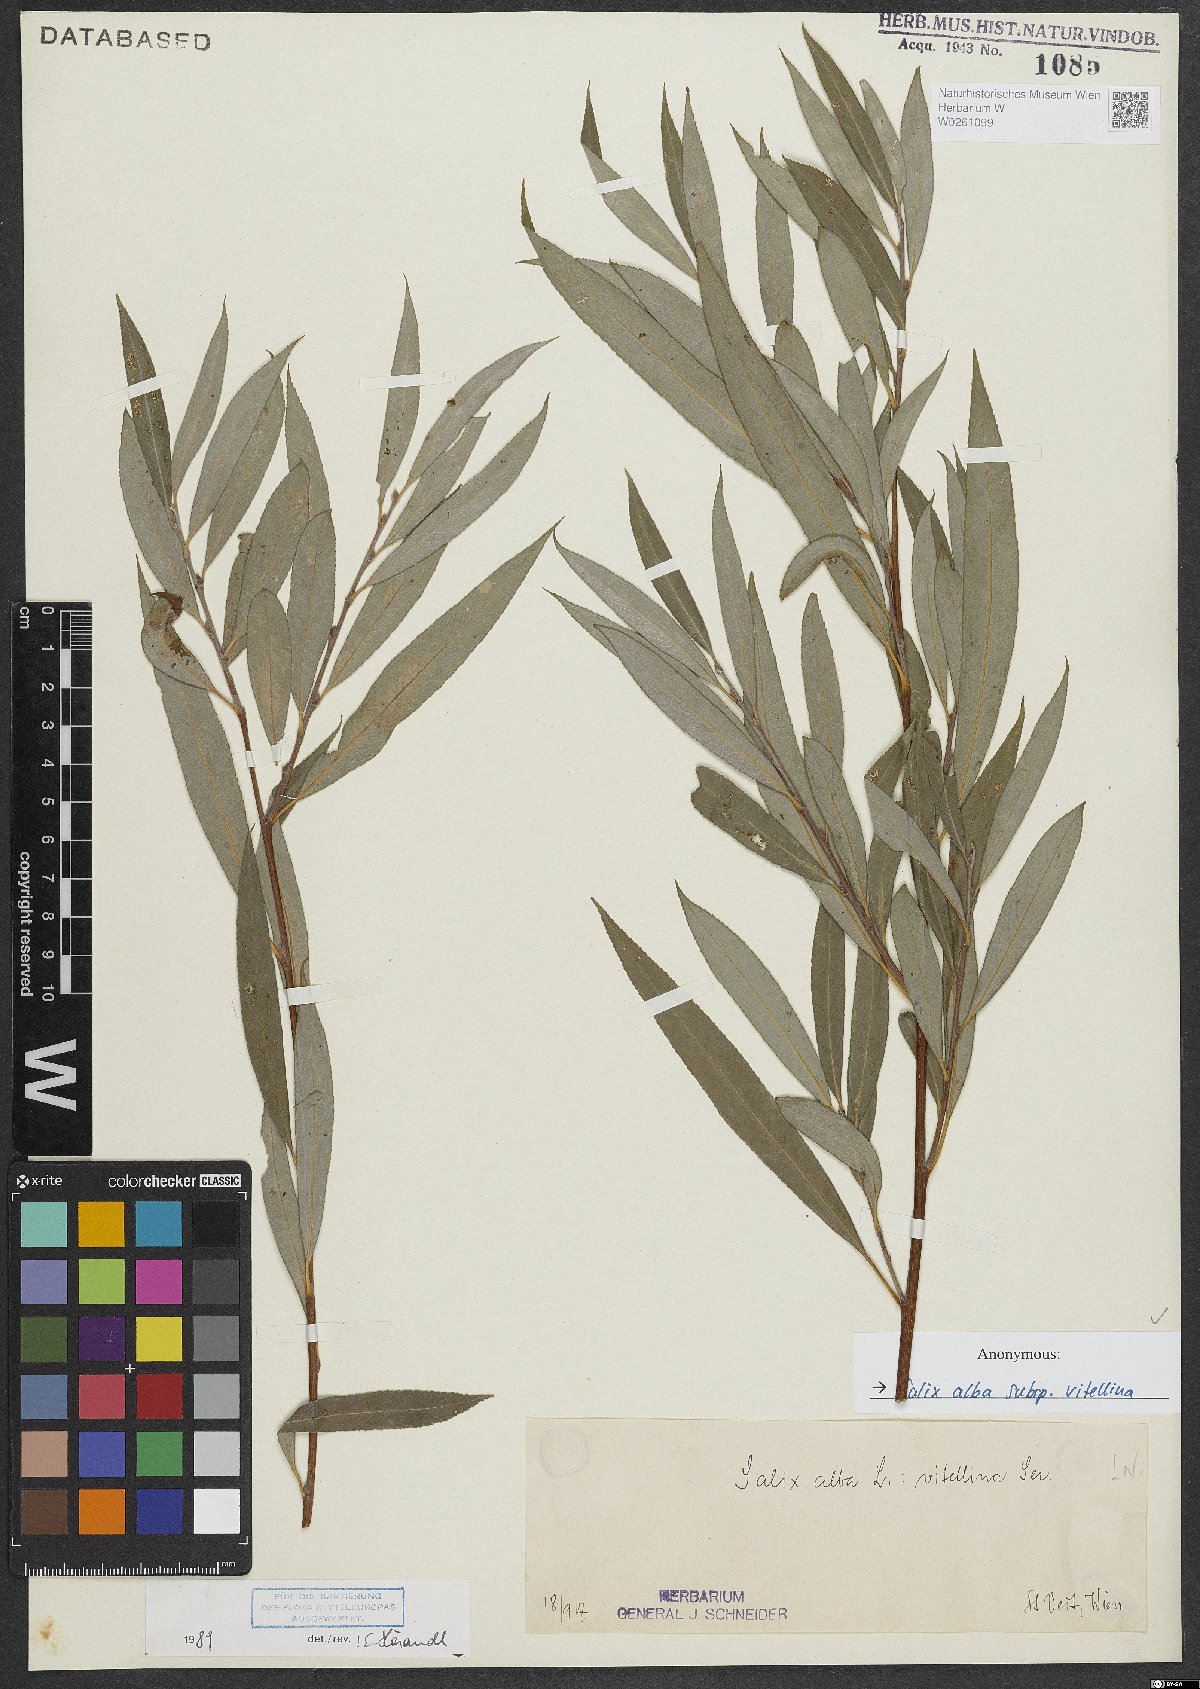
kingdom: Plantae
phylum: Tracheophyta
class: Magnoliopsida
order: Malpighiales
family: Salicaceae
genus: Salix
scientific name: Salix alba
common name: White willow
